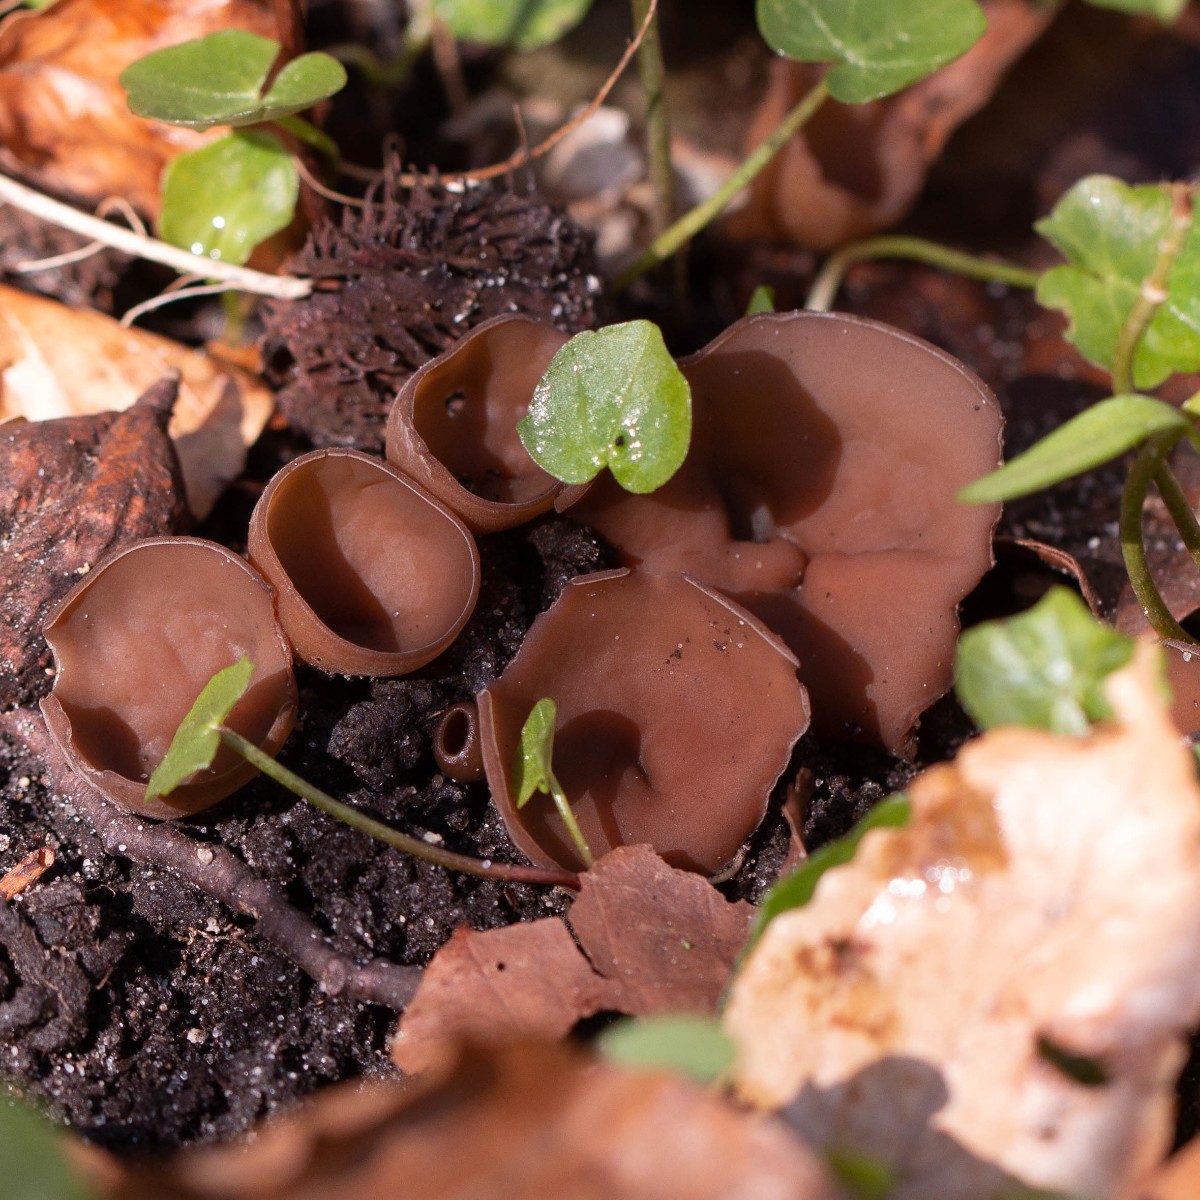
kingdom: Fungi
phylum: Ascomycota
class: Leotiomycetes
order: Helotiales
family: Sclerotiniaceae
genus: Dumontinia
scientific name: Dumontinia tuberosa
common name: anemone-knoldskive
